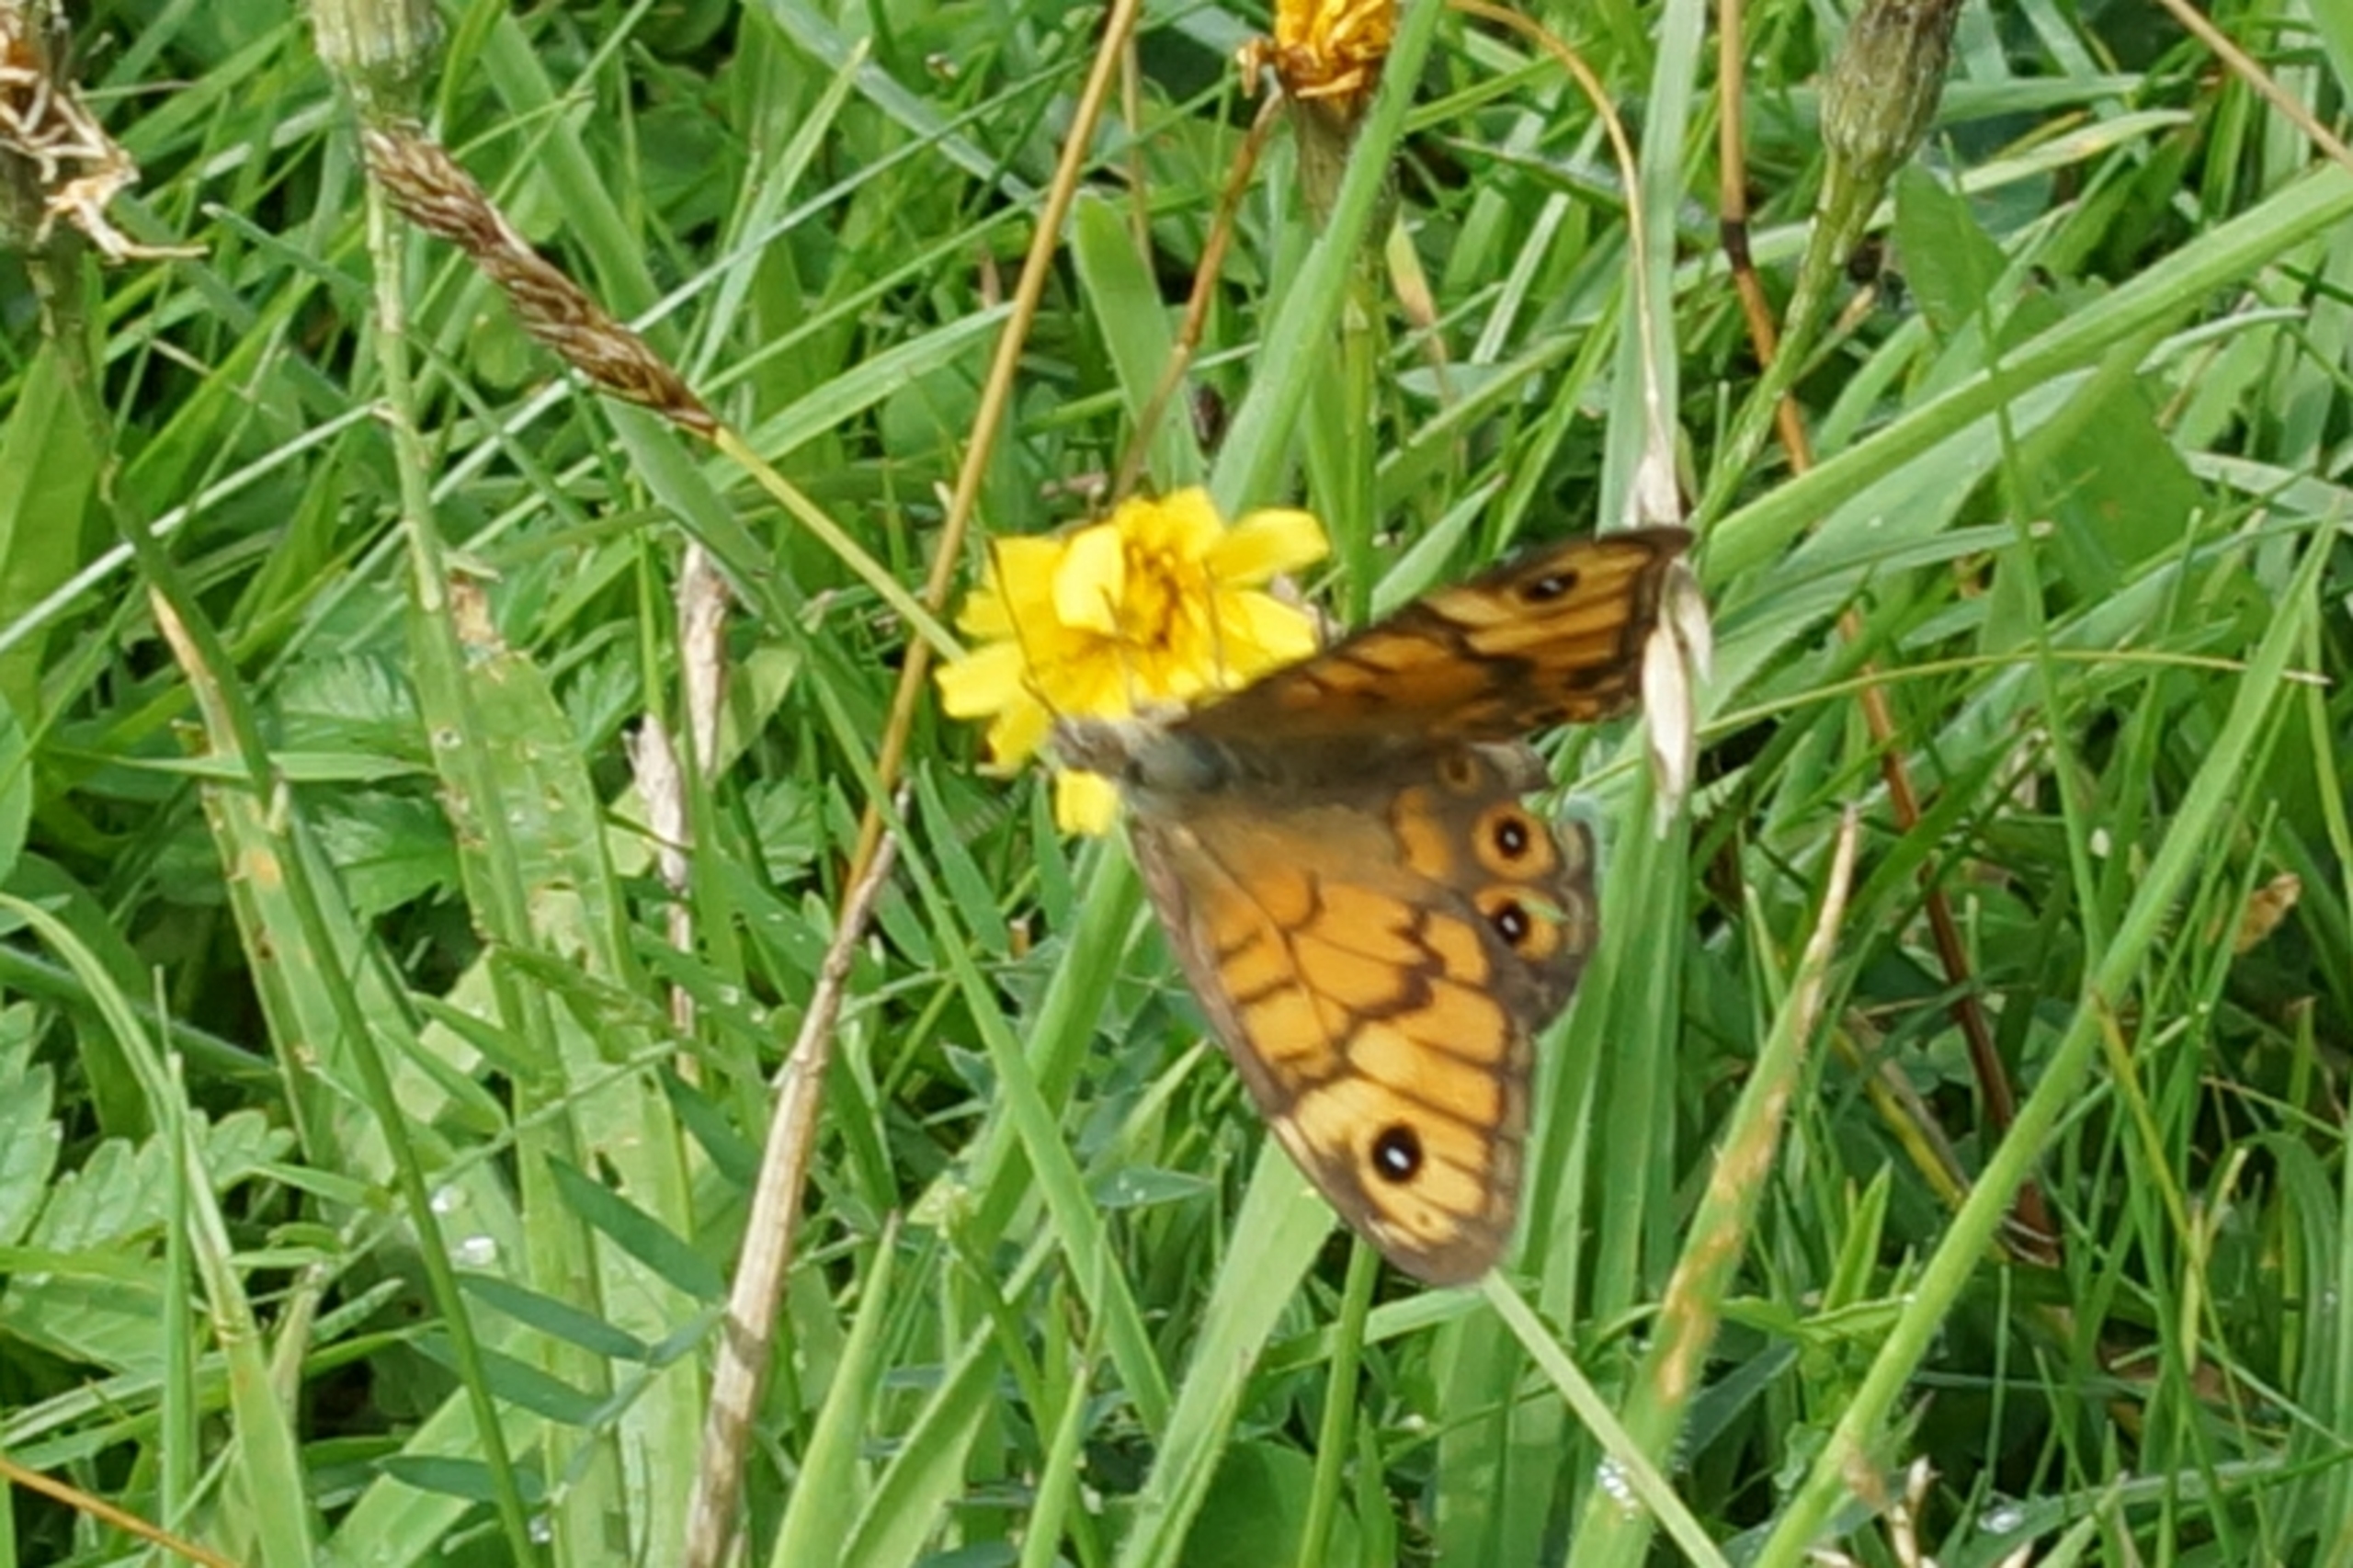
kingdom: Animalia
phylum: Arthropoda
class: Insecta
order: Lepidoptera
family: Nymphalidae
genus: Pararge
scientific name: Pararge Lasiommata megera
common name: Vejrandøje
